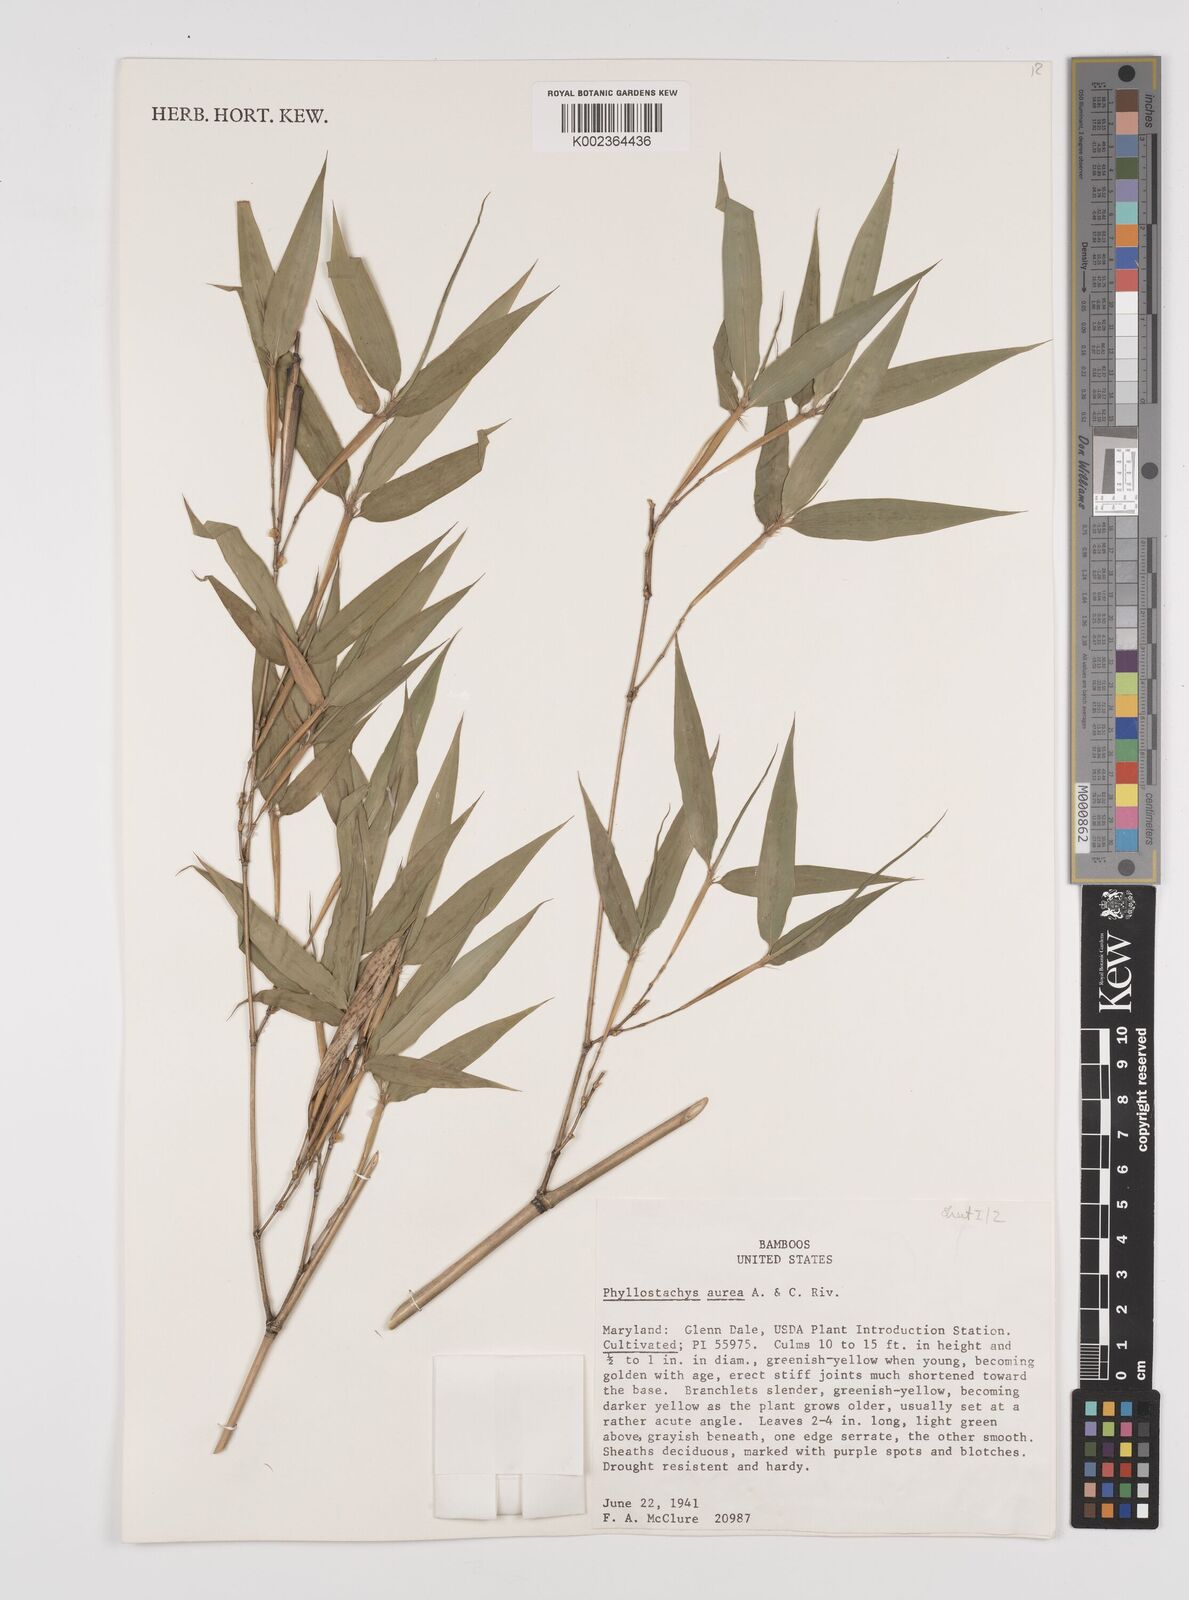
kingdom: Plantae
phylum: Tracheophyta
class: Liliopsida
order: Poales
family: Poaceae
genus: Phyllostachys
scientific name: Phyllostachys aurea
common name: Golden bamboo
